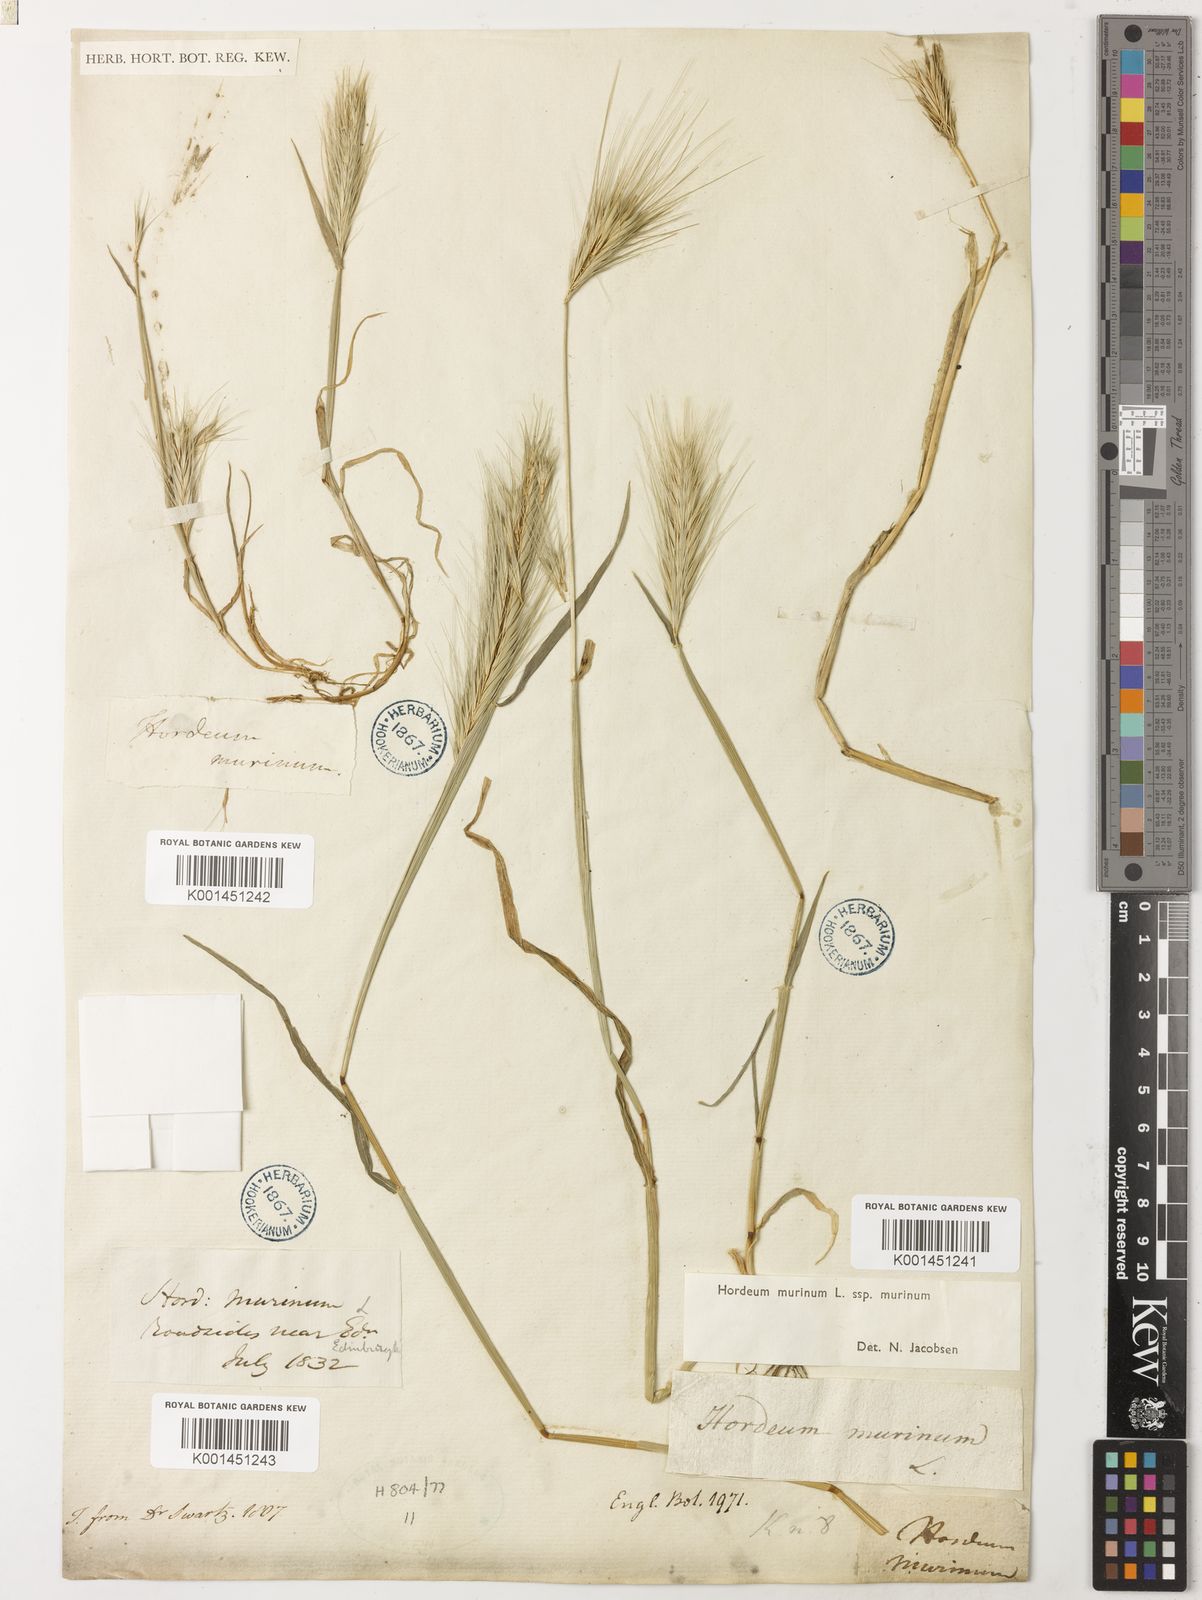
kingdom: Plantae
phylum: Tracheophyta
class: Liliopsida
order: Poales
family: Poaceae
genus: Hordeum
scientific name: Hordeum murinum
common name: Wall barley
